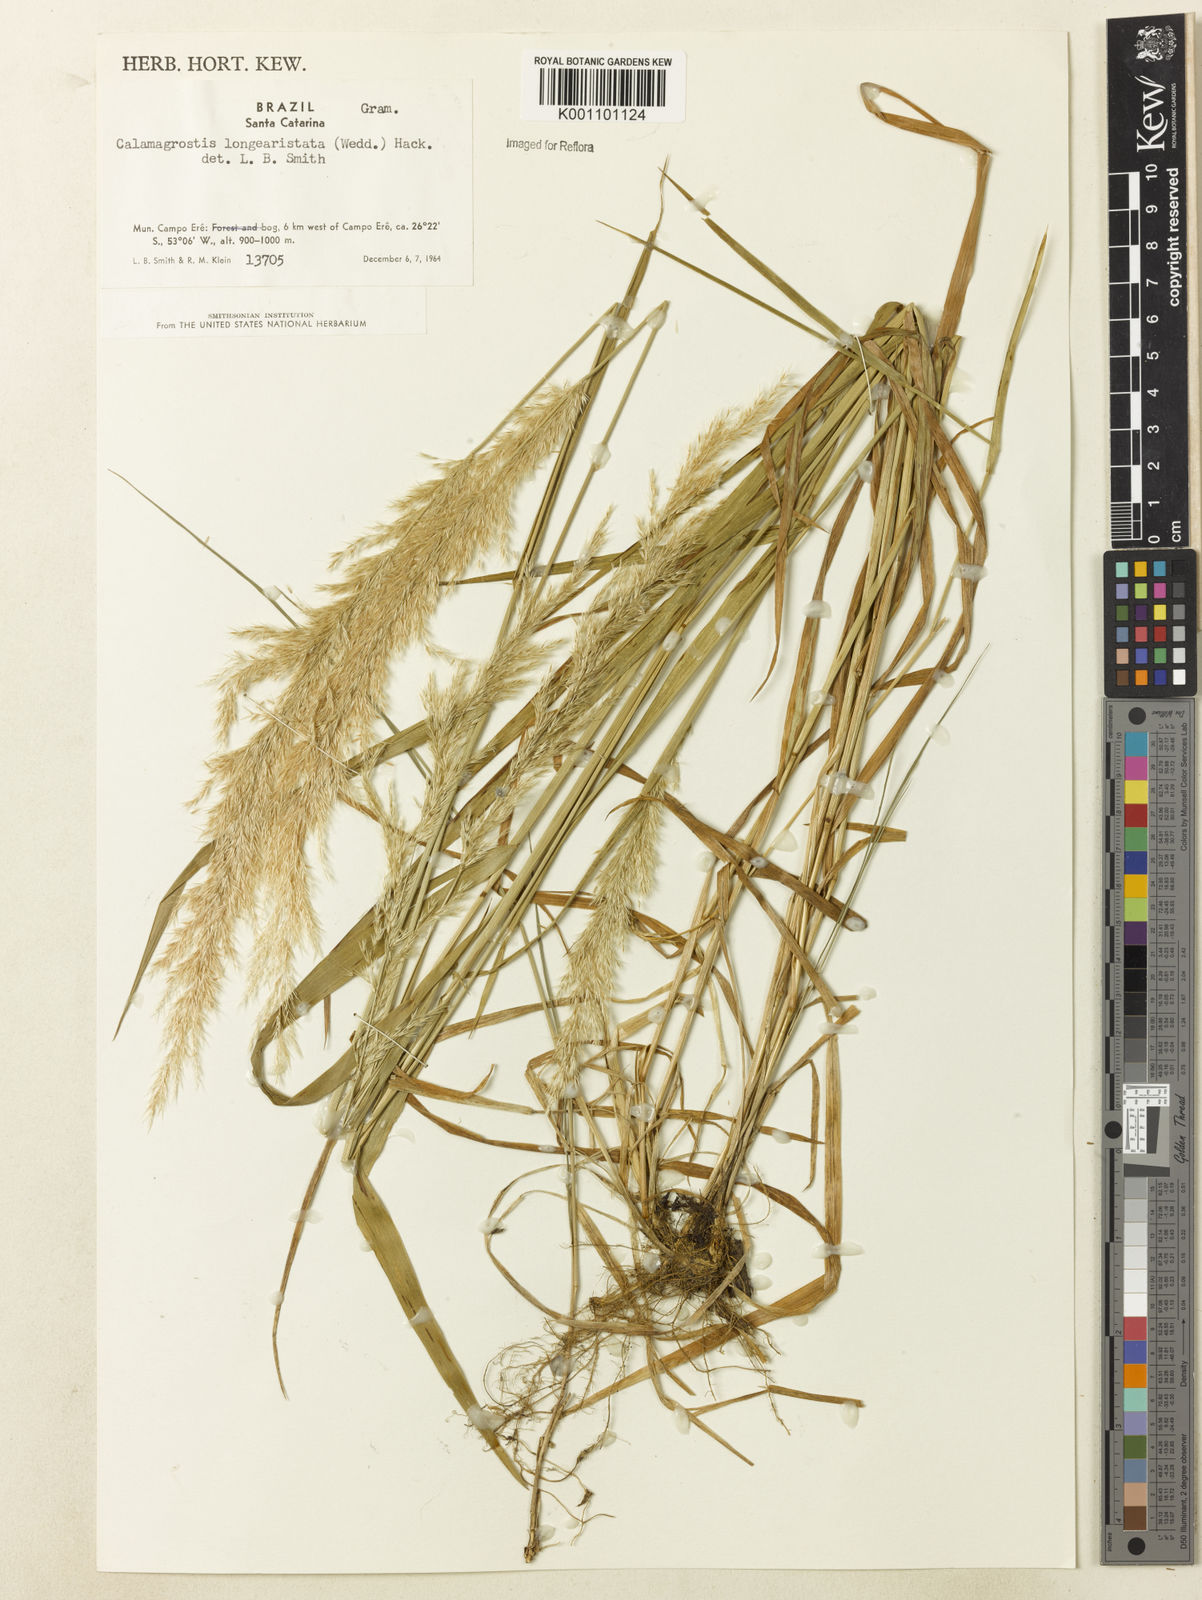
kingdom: Plantae
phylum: Tracheophyta
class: Liliopsida
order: Poales
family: Poaceae
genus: Cinnagrostis
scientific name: Cinnagrostis rupestris
